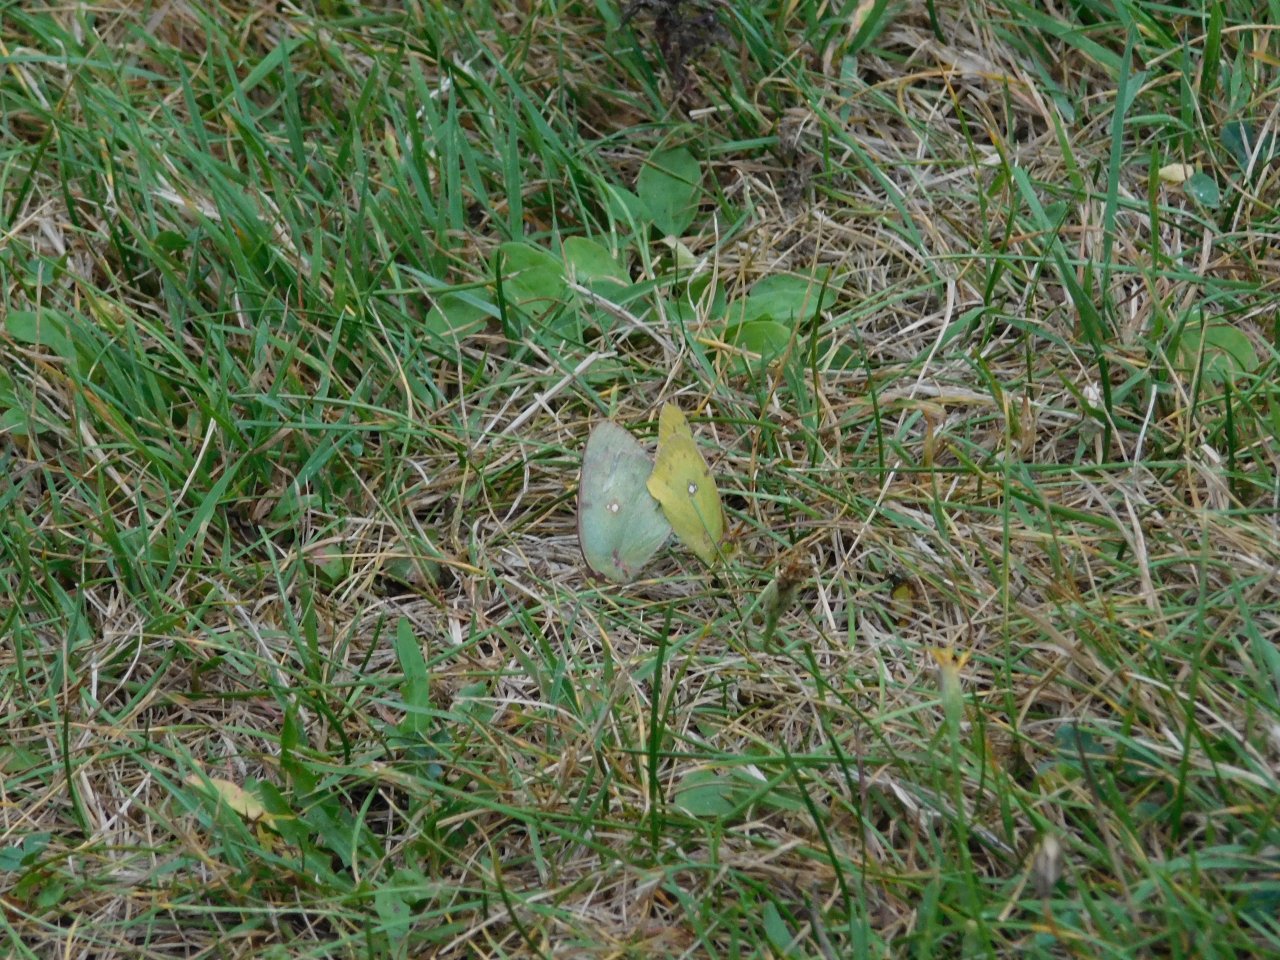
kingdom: Animalia
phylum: Arthropoda
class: Insecta
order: Lepidoptera
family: Pieridae
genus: Colias
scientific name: Colias philodice
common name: Clouded Sulphur
